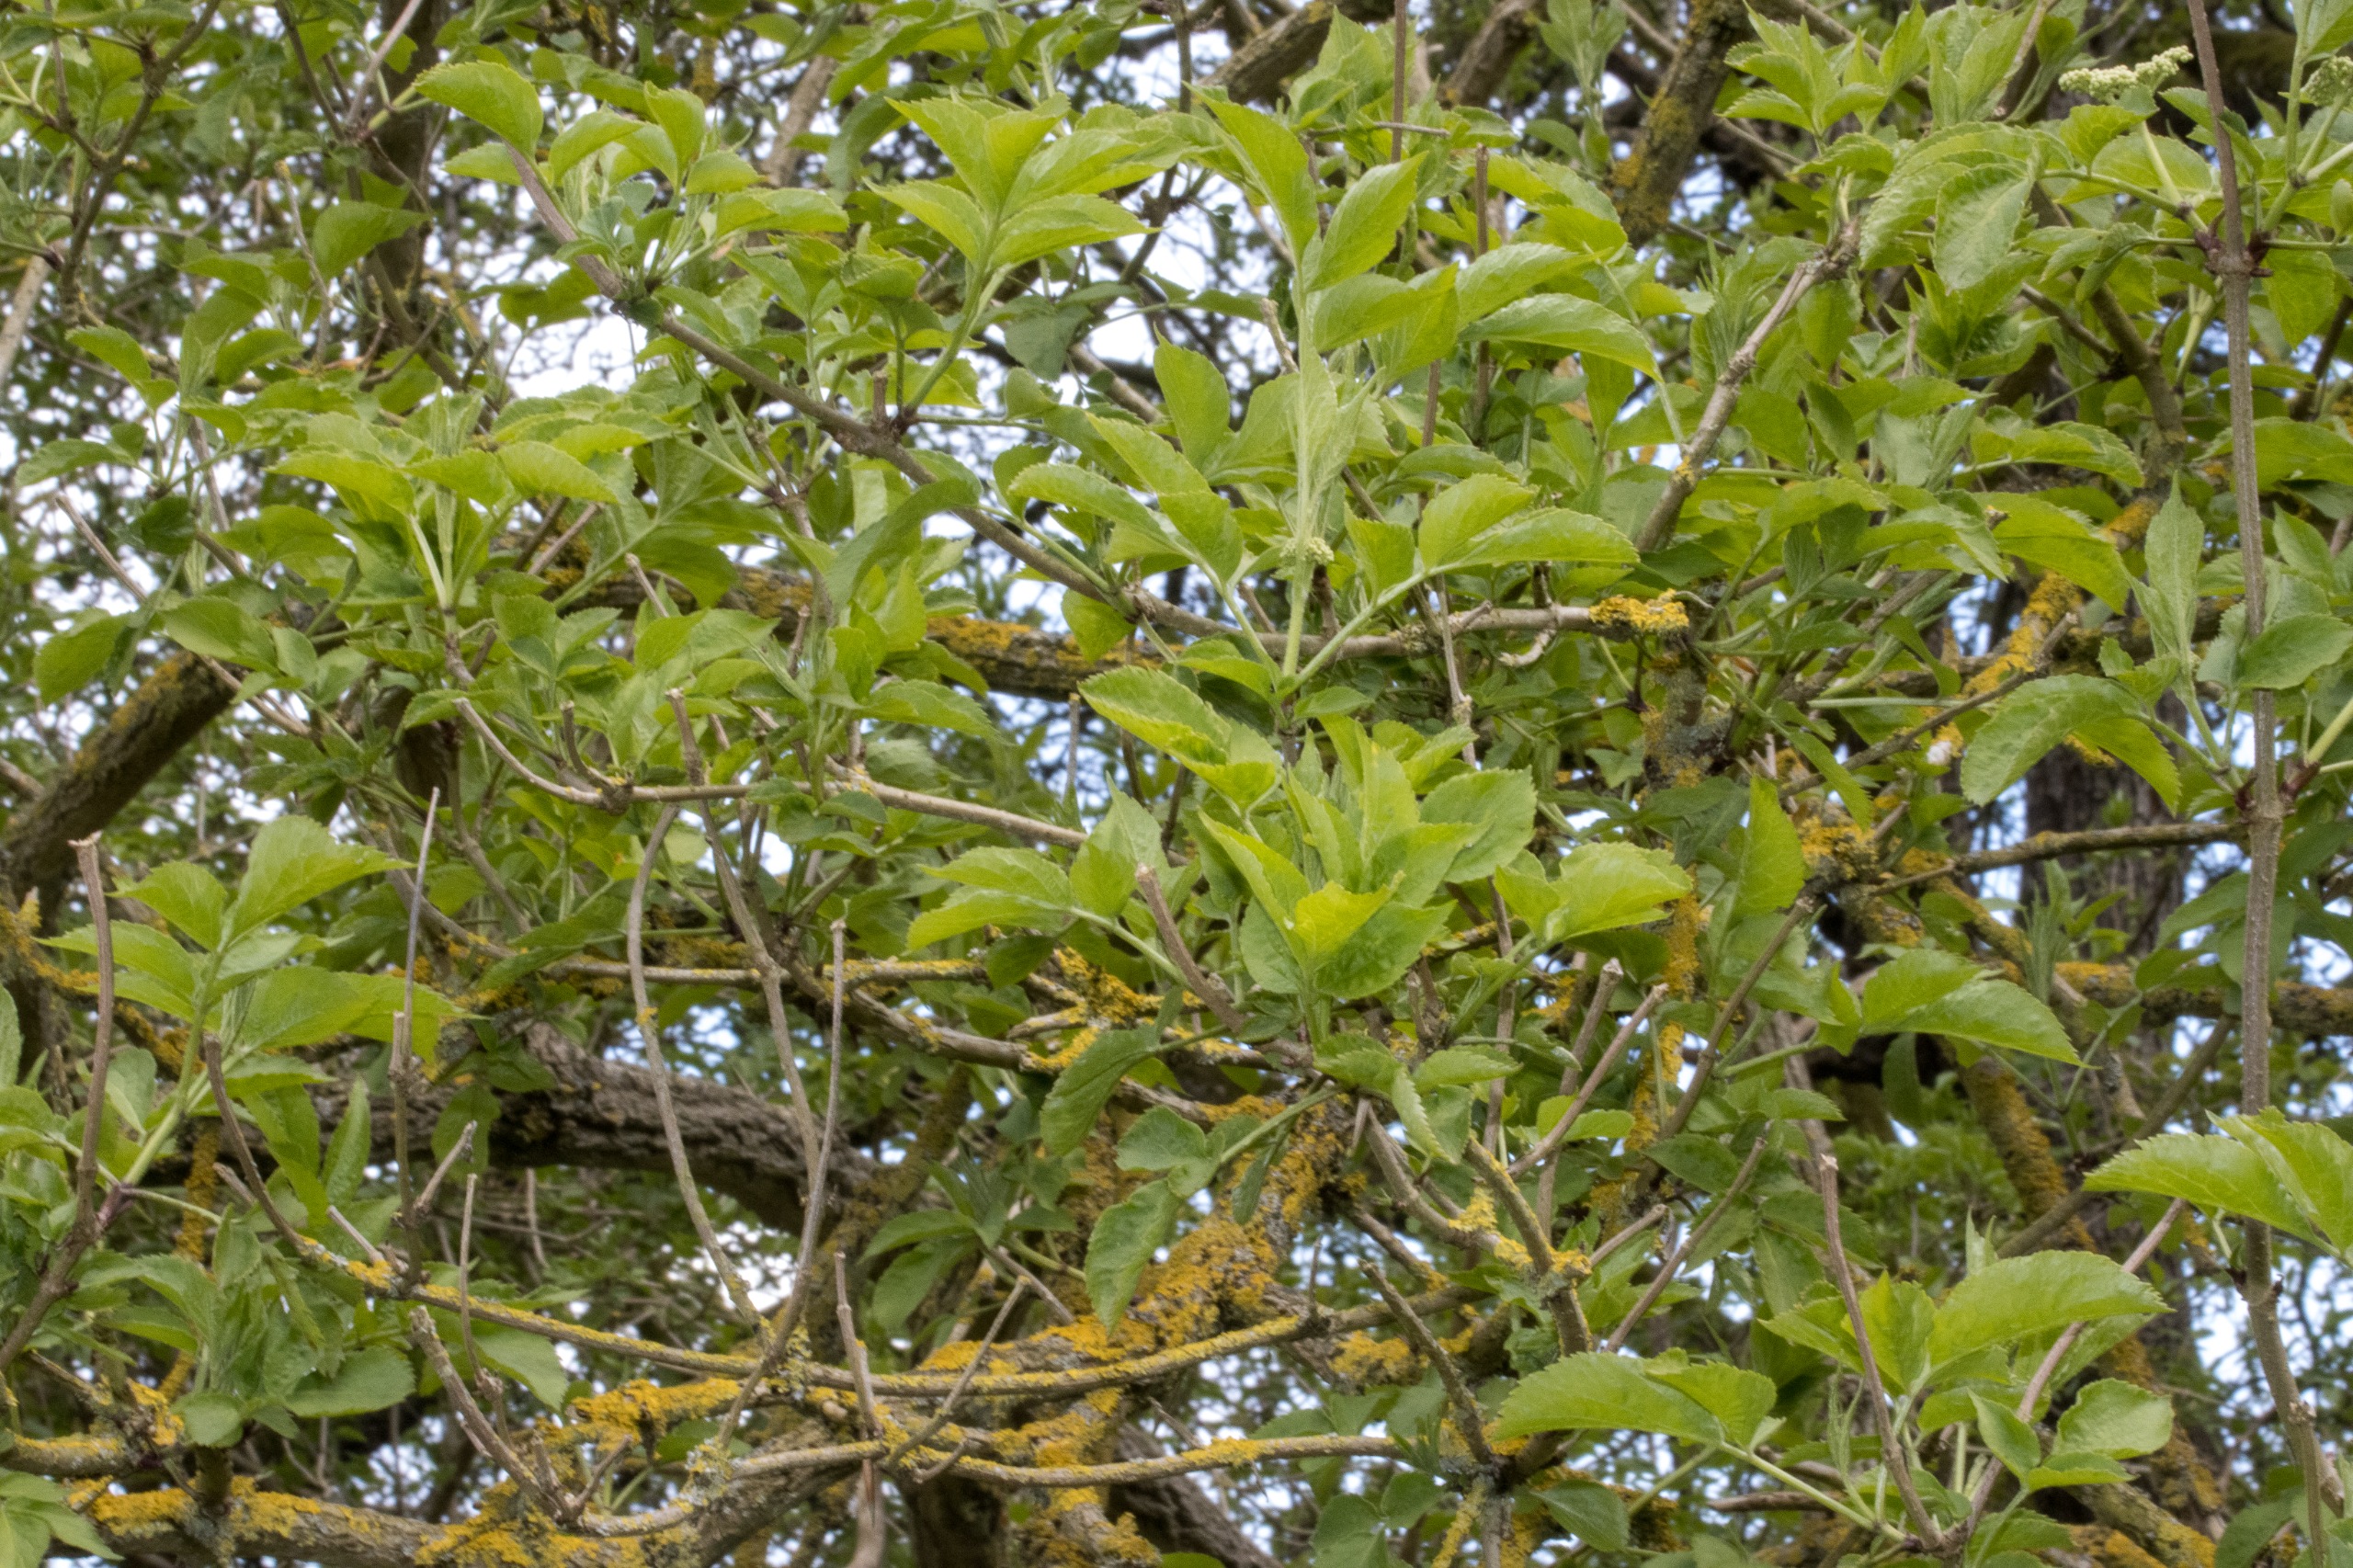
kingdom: Plantae
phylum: Tracheophyta
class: Magnoliopsida
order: Dipsacales
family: Viburnaceae
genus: Sambucus
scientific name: Sambucus nigra
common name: Almindelig hyld
